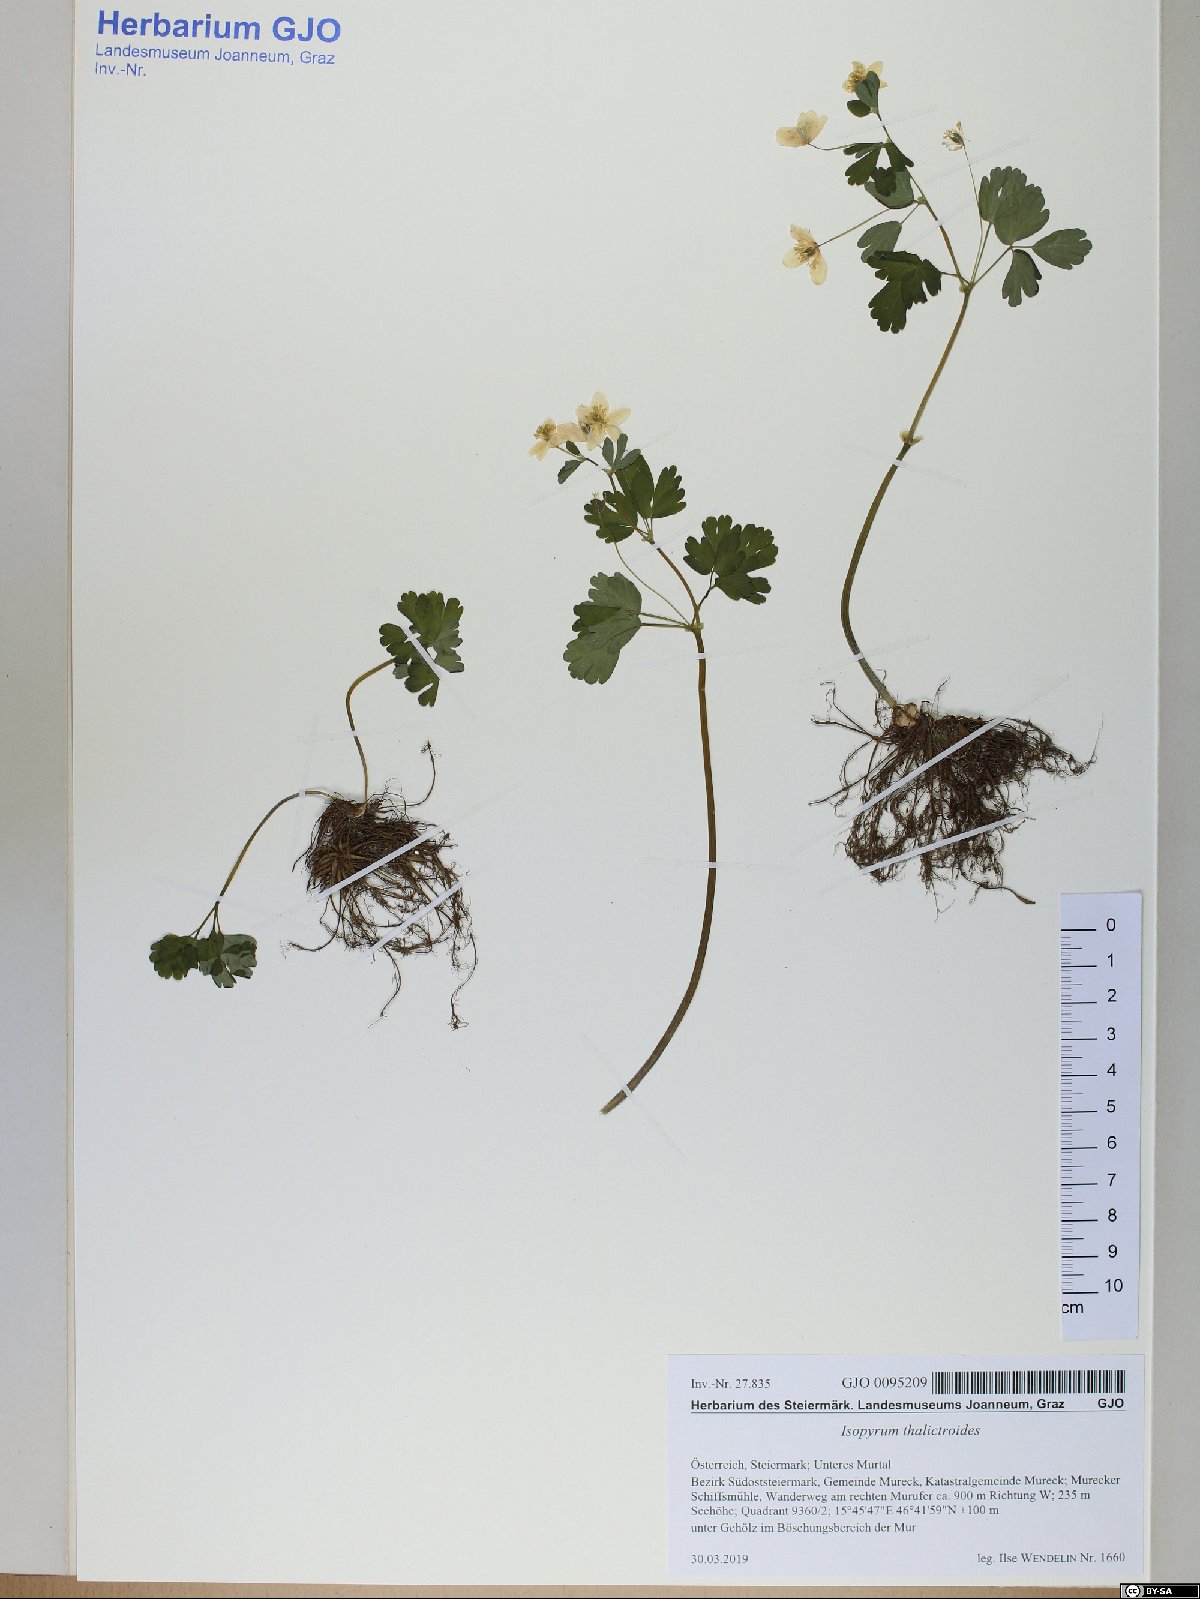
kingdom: Plantae
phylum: Tracheophyta
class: Magnoliopsida
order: Ranunculales
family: Ranunculaceae
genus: Isopyrum
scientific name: Isopyrum thalictroides
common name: Isopyrum
